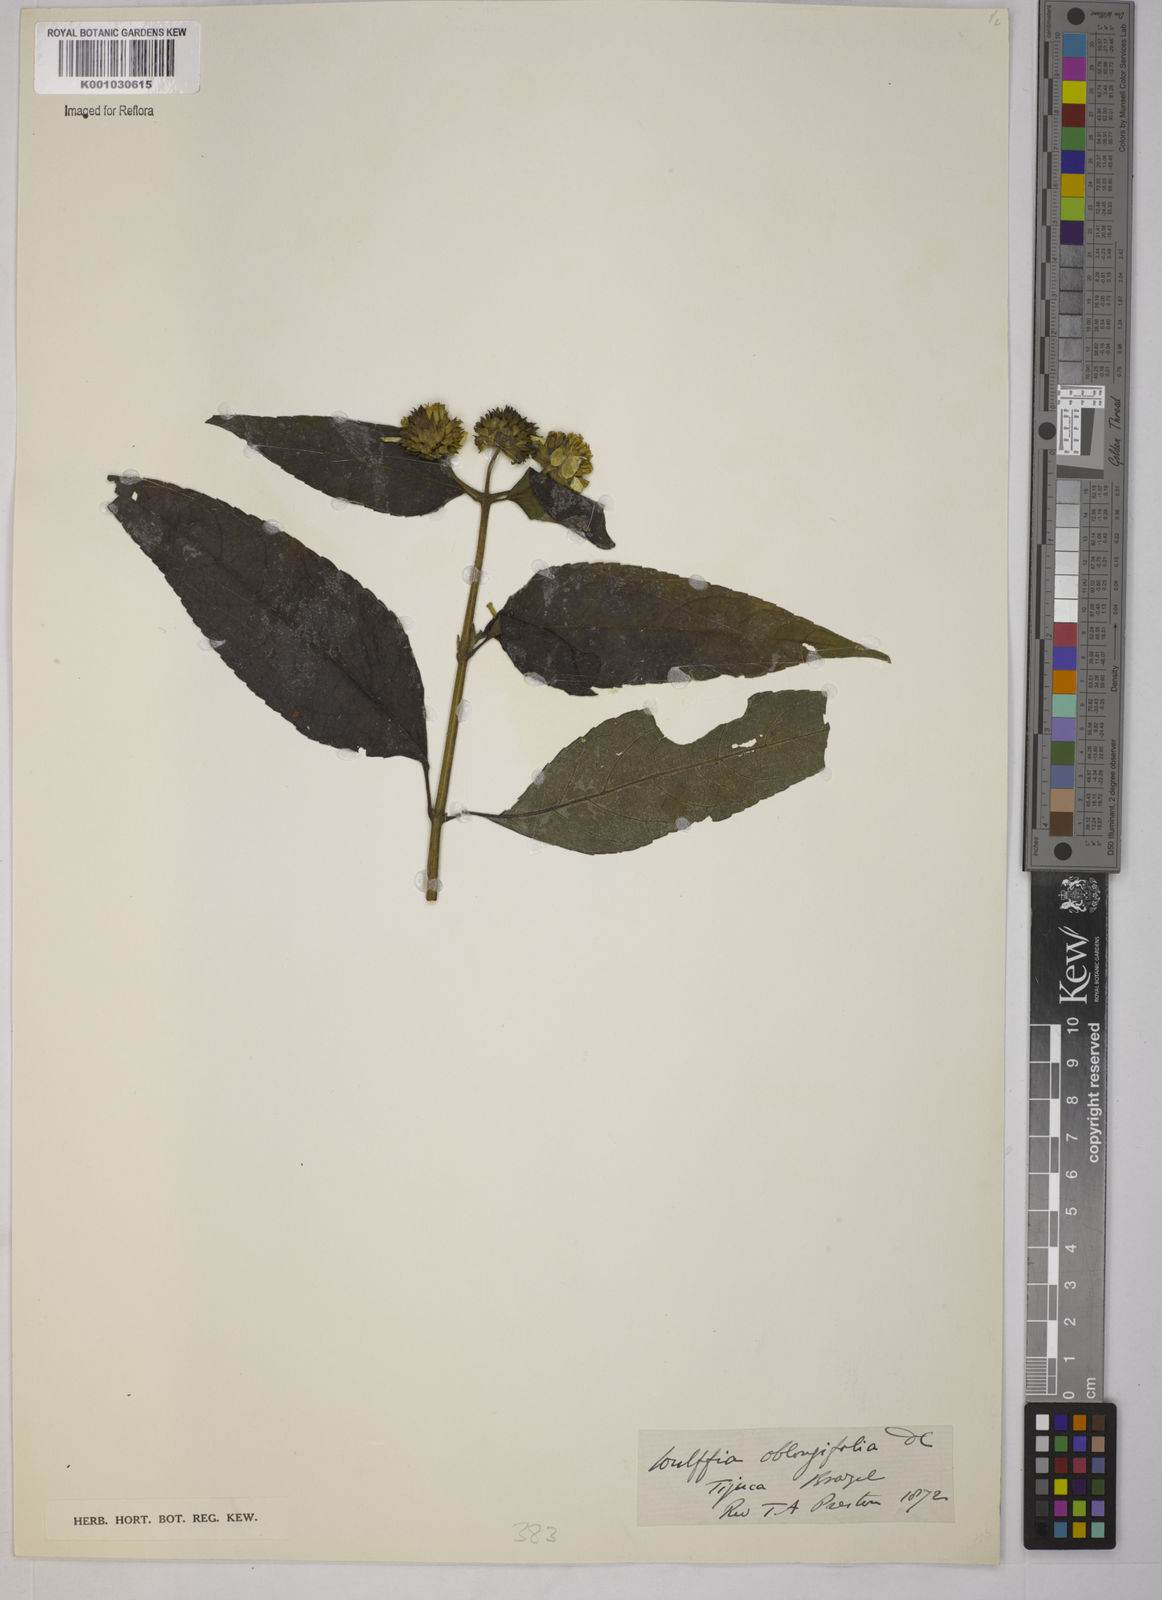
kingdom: Plantae
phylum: Tracheophyta
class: Magnoliopsida
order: Asterales
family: Asteraceae
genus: Tilesia
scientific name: Tilesia baccata
